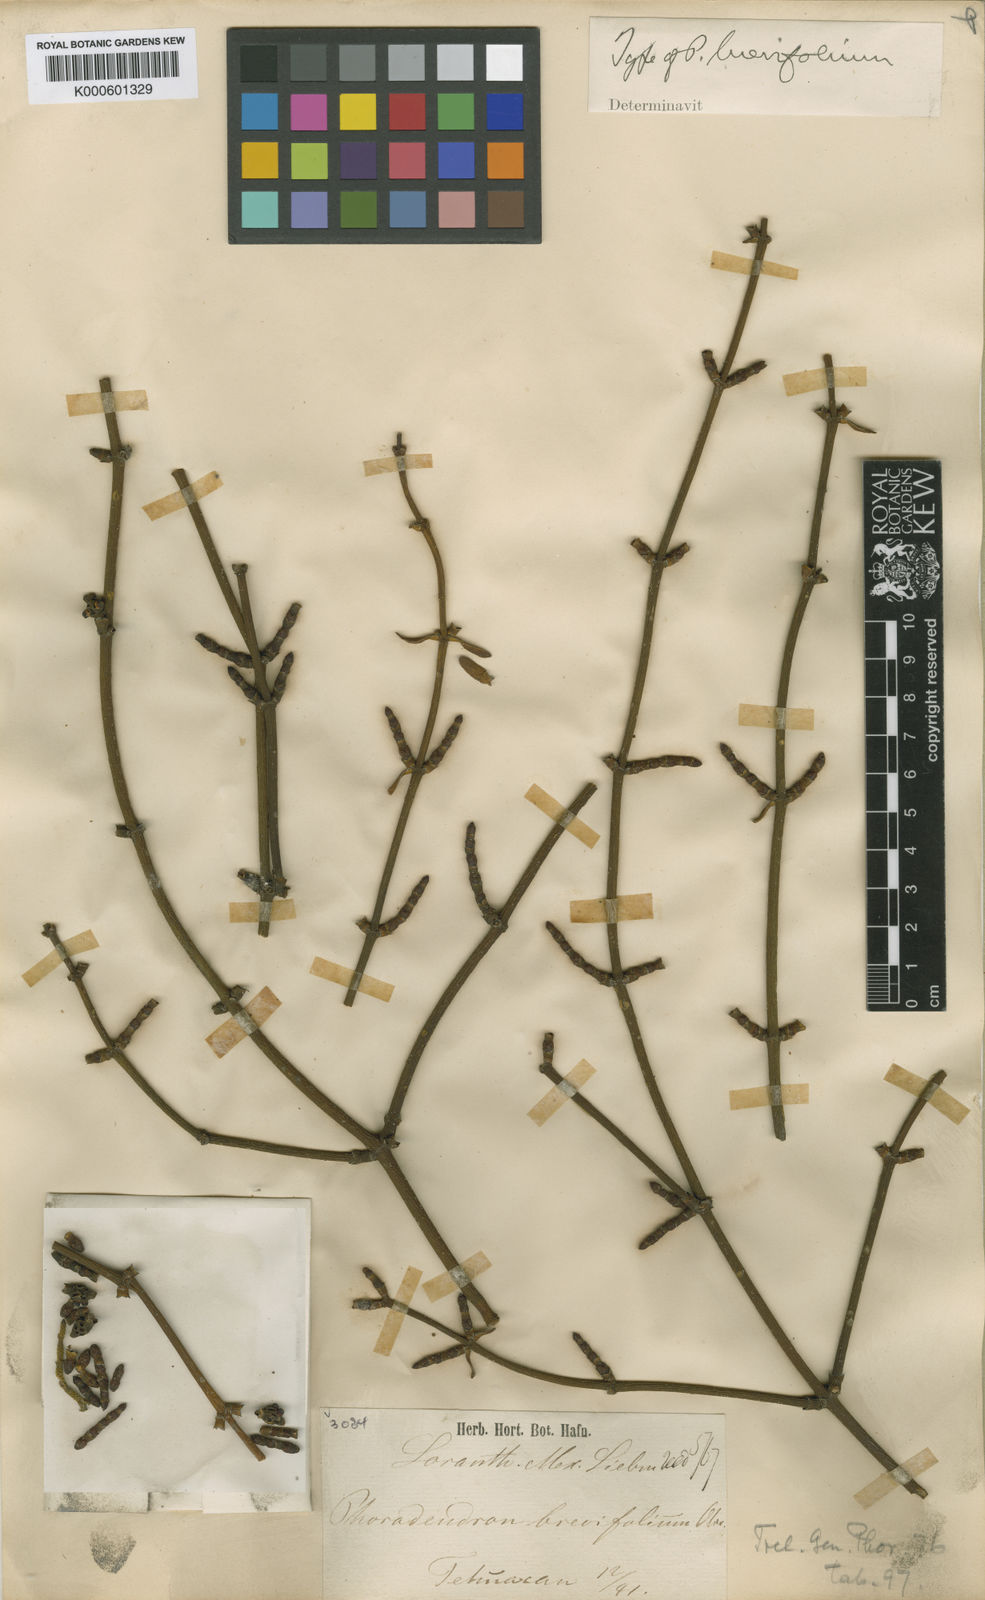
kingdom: Plantae
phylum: Tracheophyta
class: Magnoliopsida
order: Santalales
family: Viscaceae
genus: Phoradendron
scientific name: Phoradendron brevifolium
